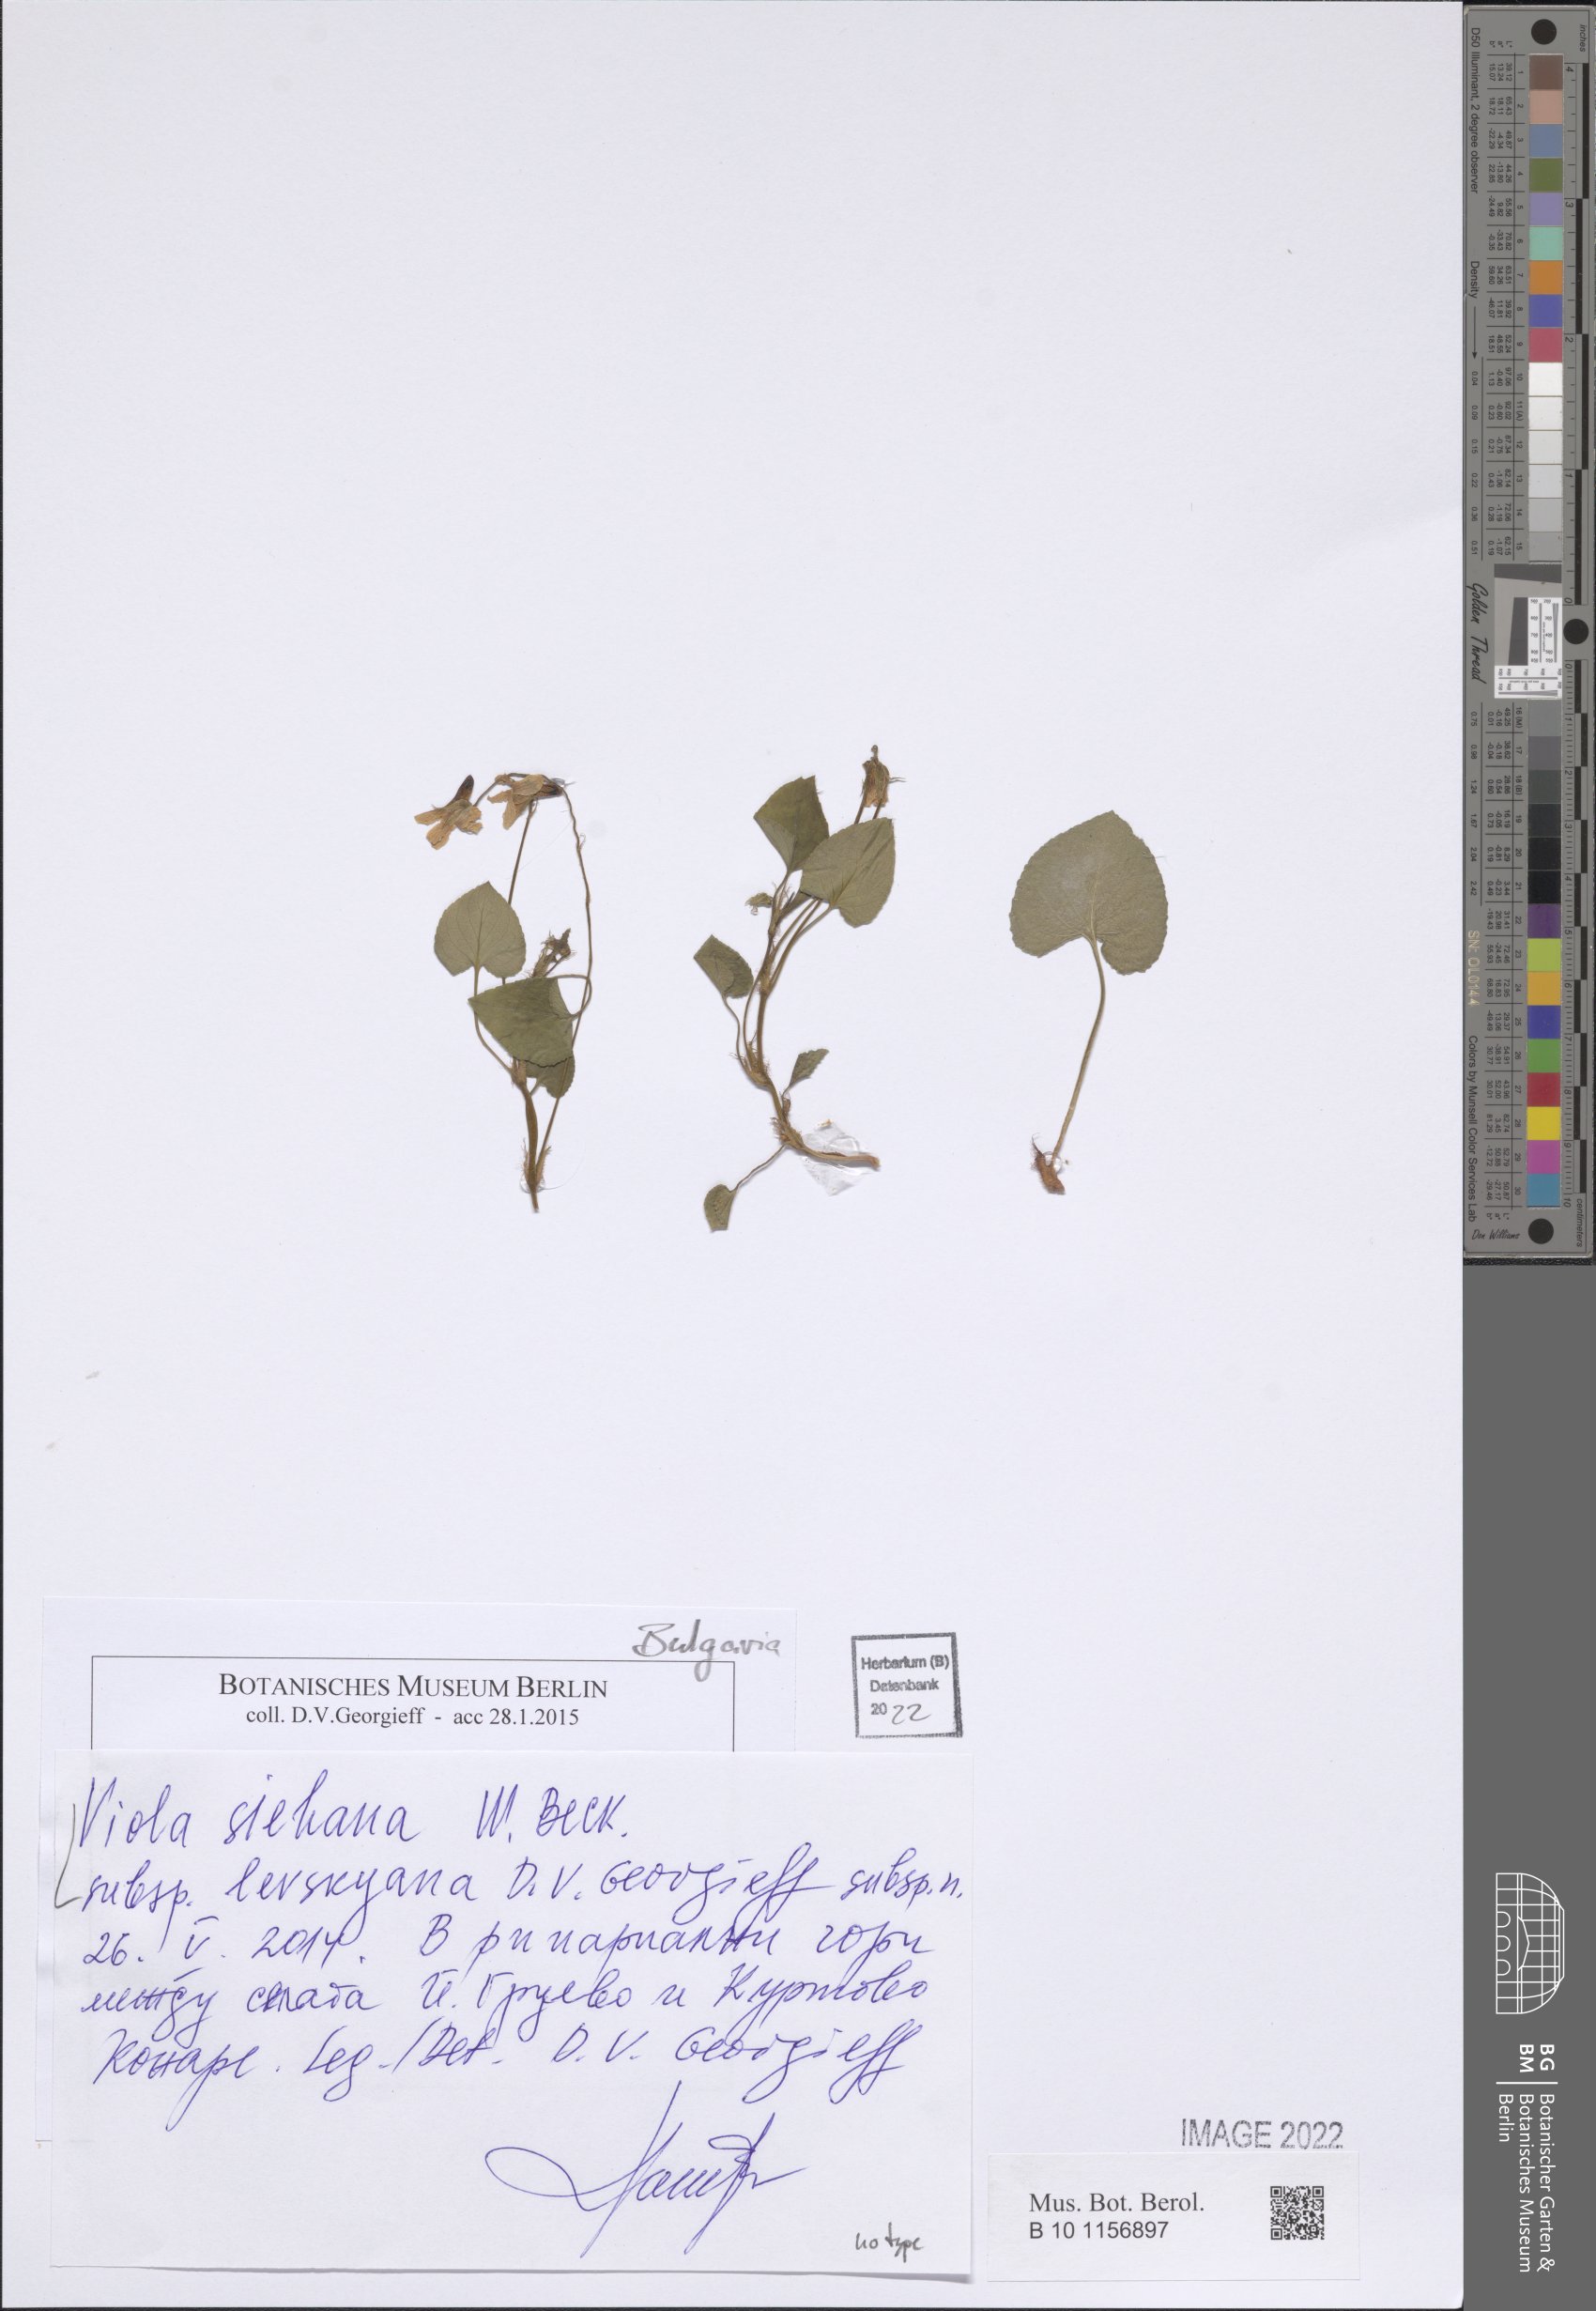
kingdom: Plantae
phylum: Tracheophyta
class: Magnoliopsida
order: Malpighiales
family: Violaceae
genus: Viola
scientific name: Viola sieheana
